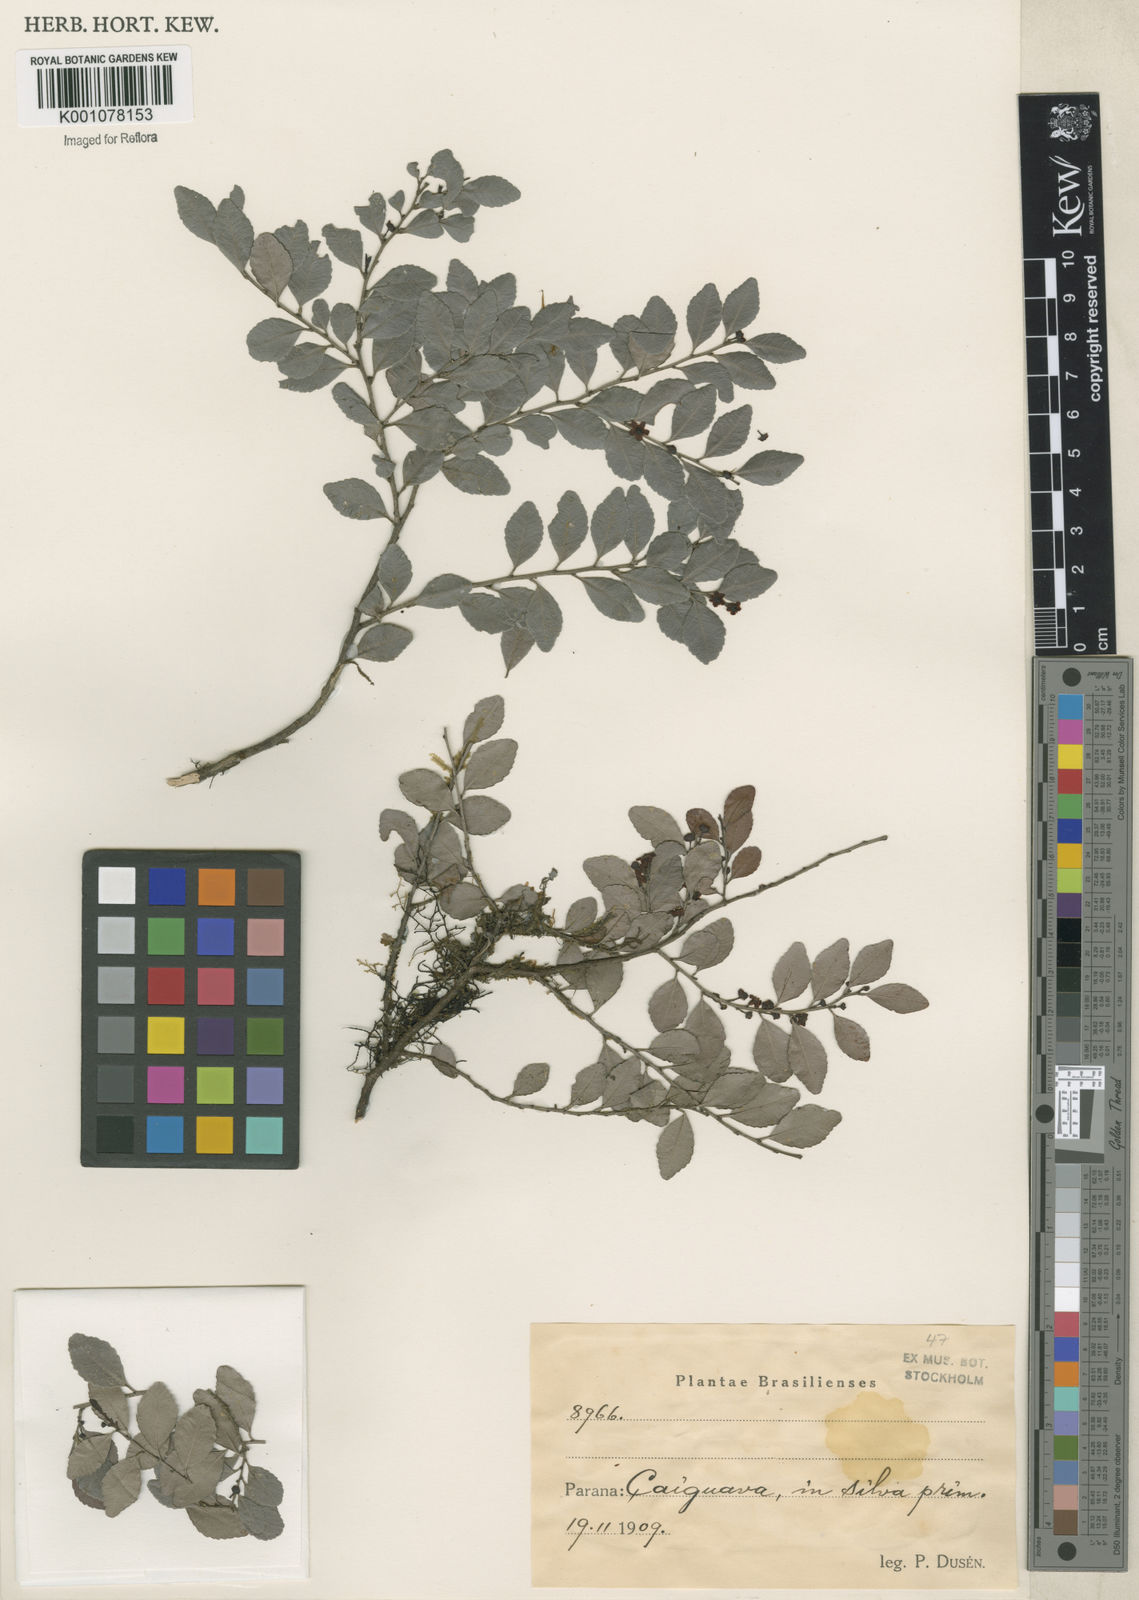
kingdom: Plantae
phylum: Tracheophyta
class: Magnoliopsida
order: Celastrales
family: Celastraceae
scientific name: Celastraceae
